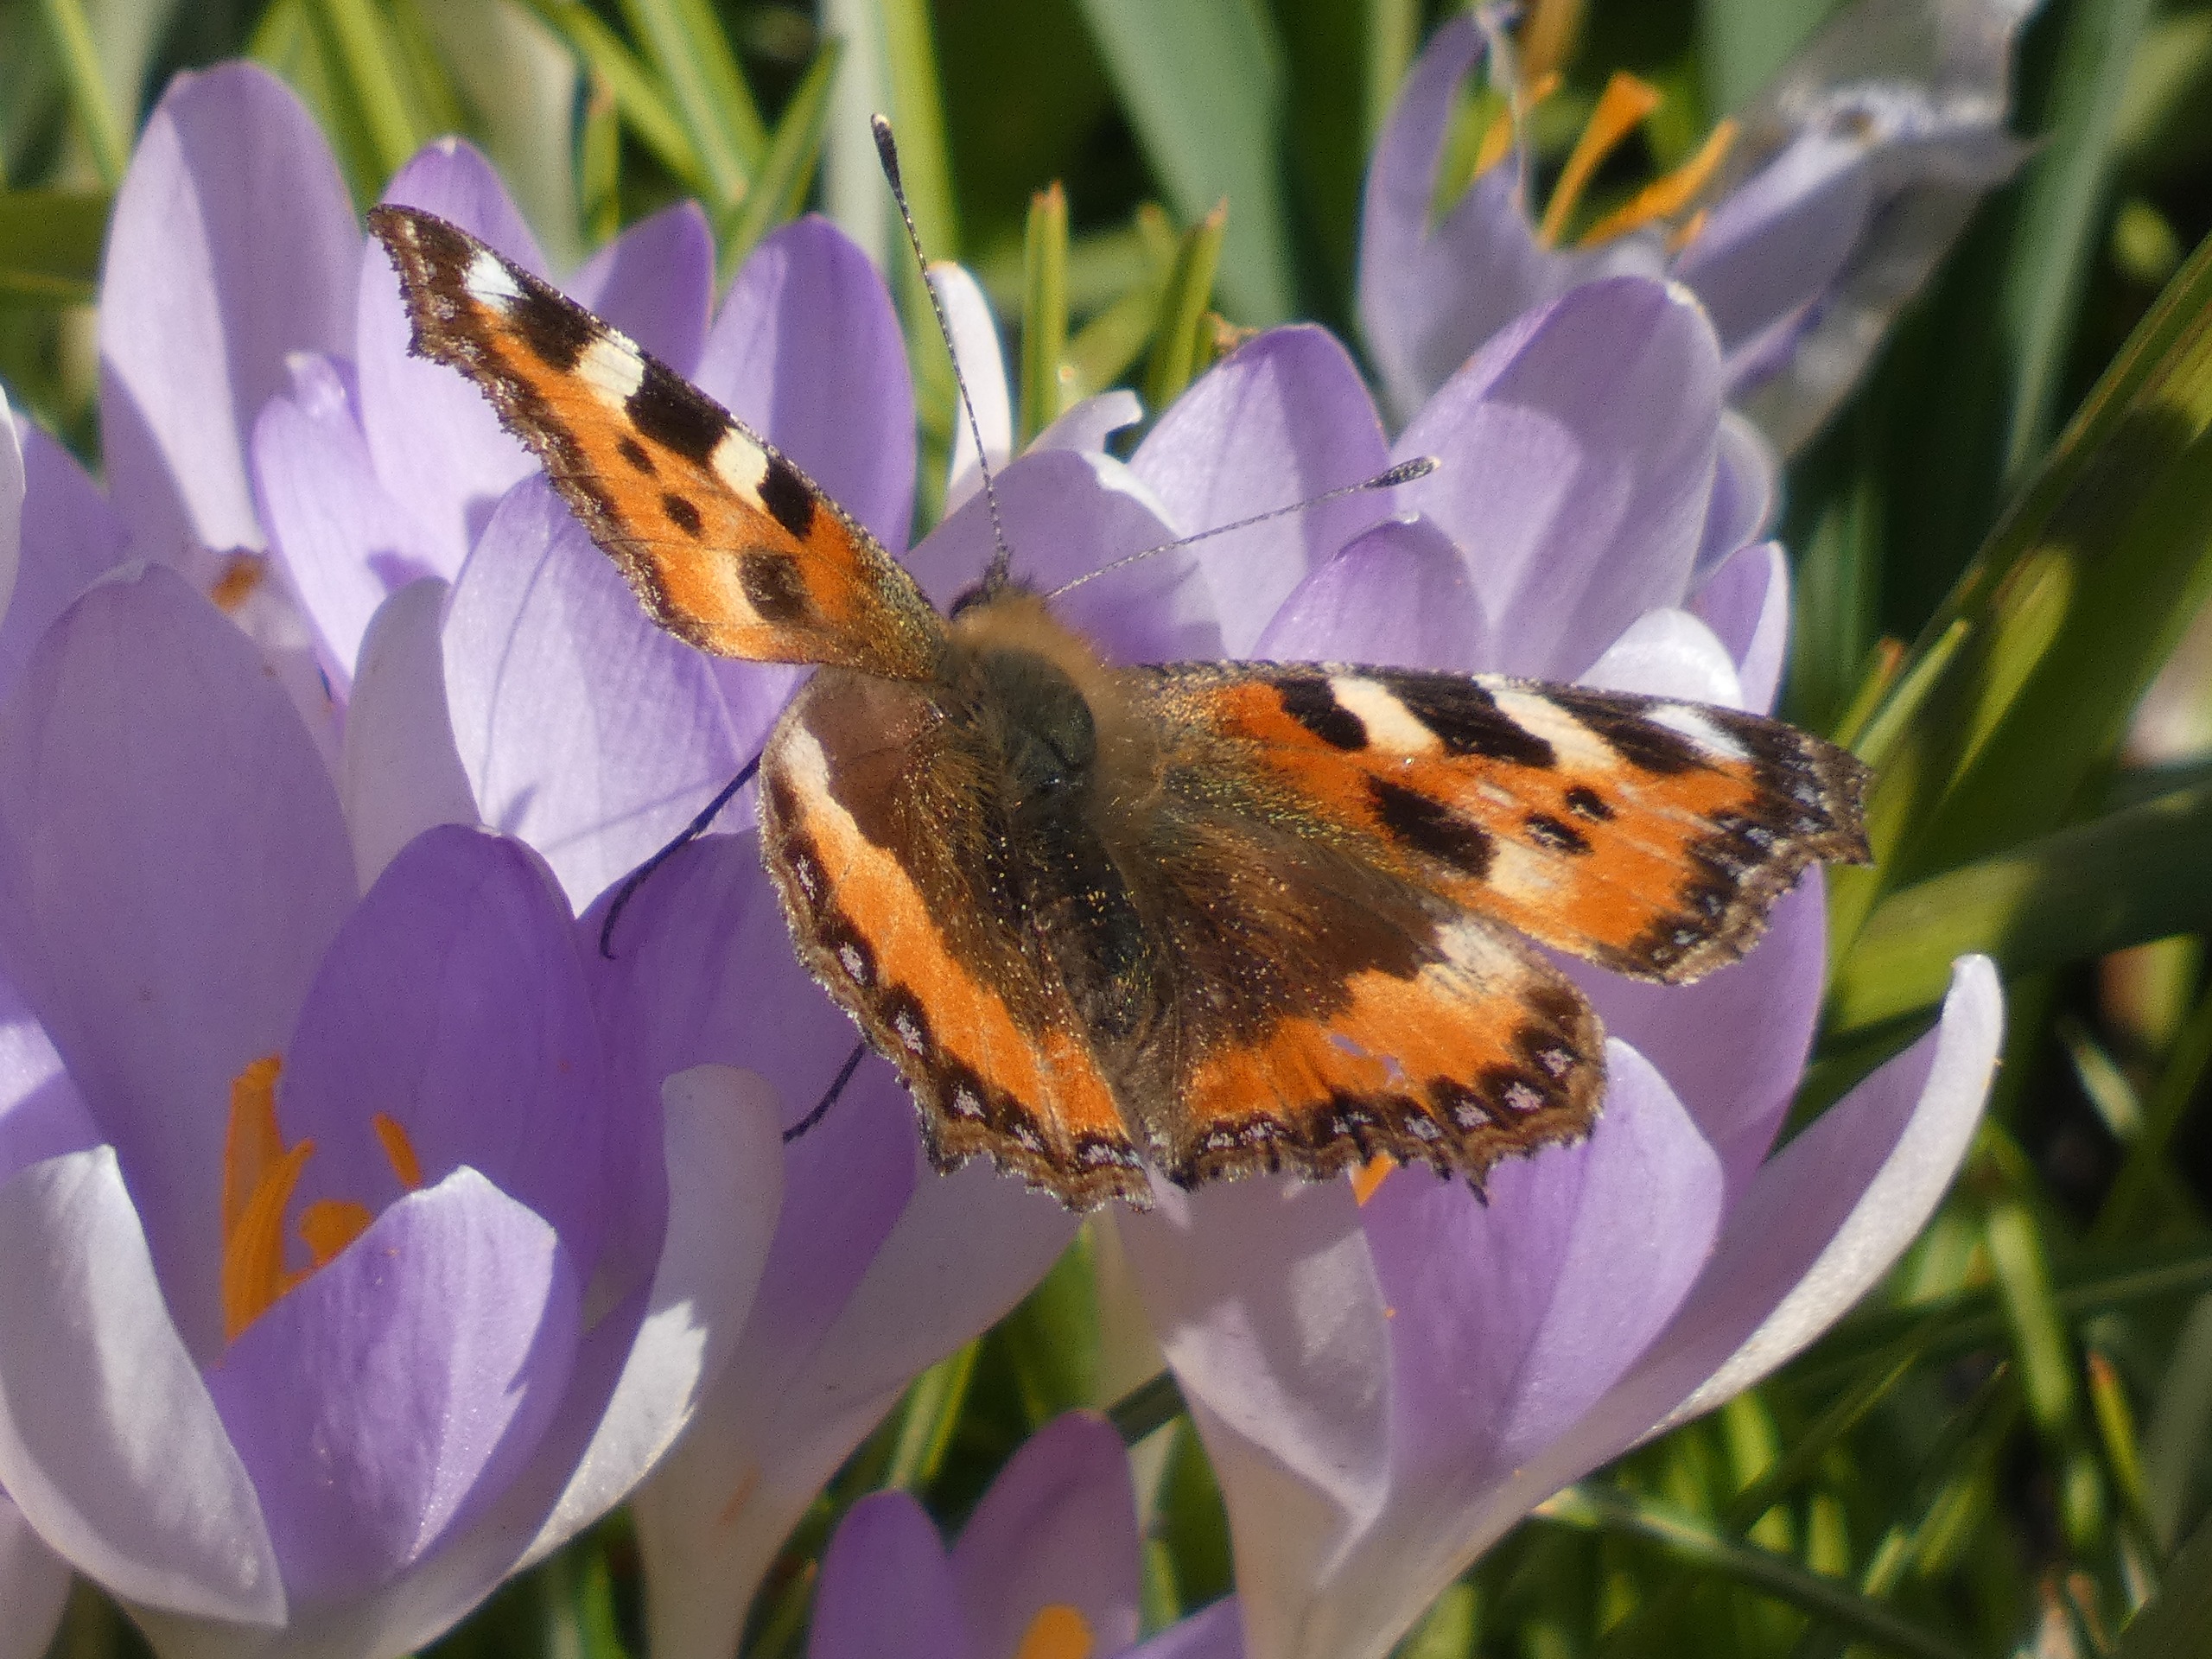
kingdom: Animalia
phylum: Arthropoda
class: Insecta
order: Lepidoptera
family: Nymphalidae
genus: Aglais
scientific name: Aglais urticae
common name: Nældens takvinge
